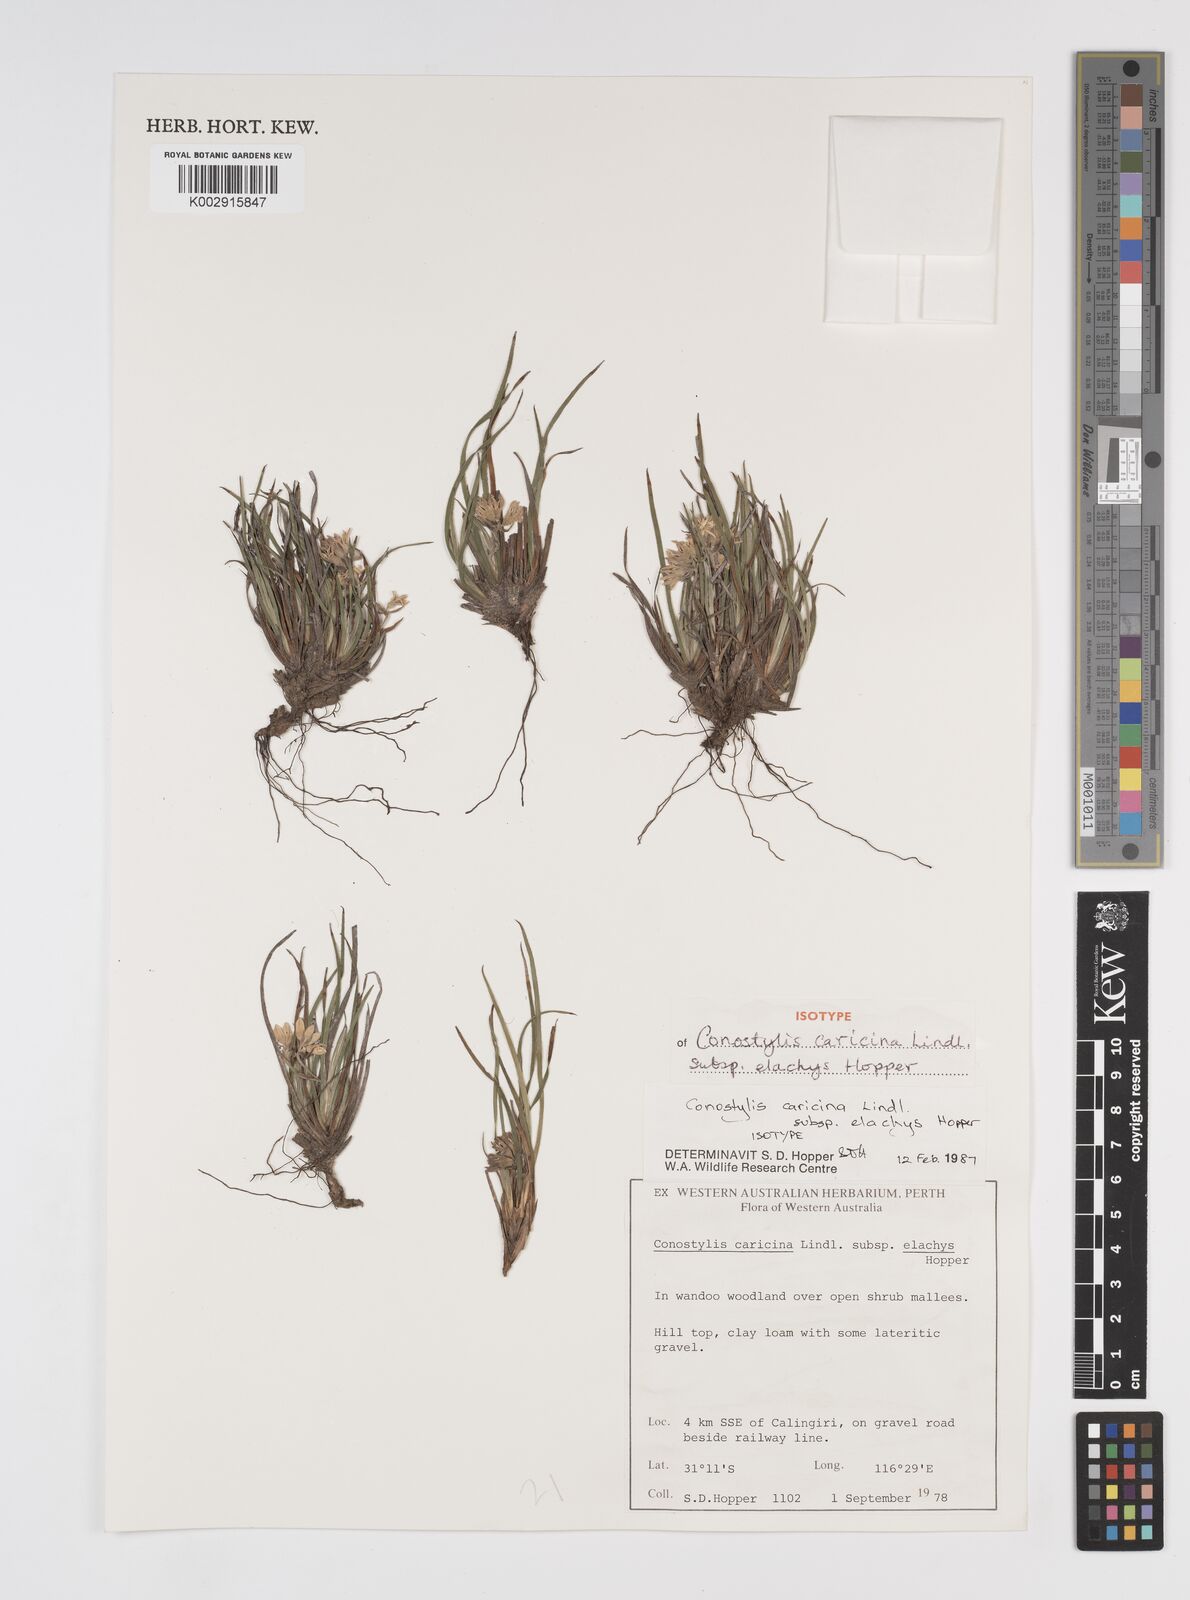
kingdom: Plantae
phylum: Tracheophyta
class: Liliopsida
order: Commelinales
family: Haemodoraceae
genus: Conostylis
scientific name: Conostylis caricina
